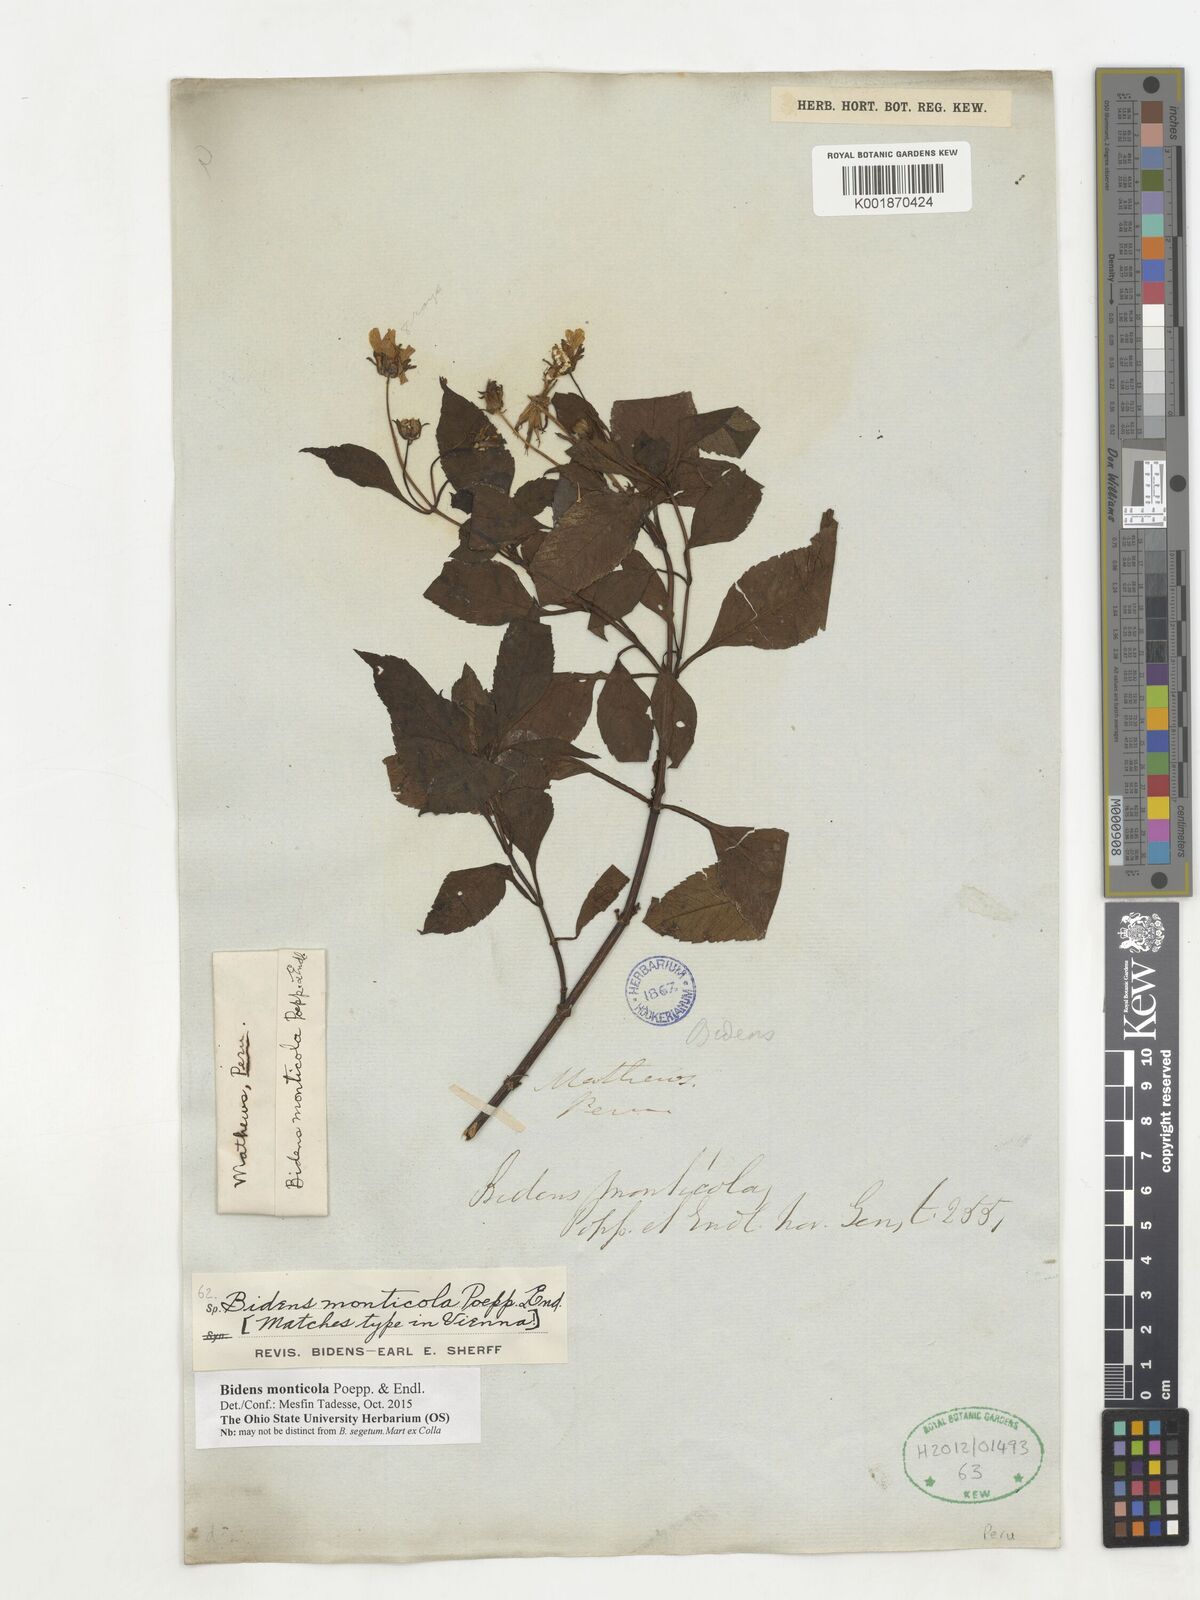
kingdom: Plantae
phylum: Tracheophyta
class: Magnoliopsida
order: Asterales
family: Asteraceae
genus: Bidens
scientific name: Bidens monticola
